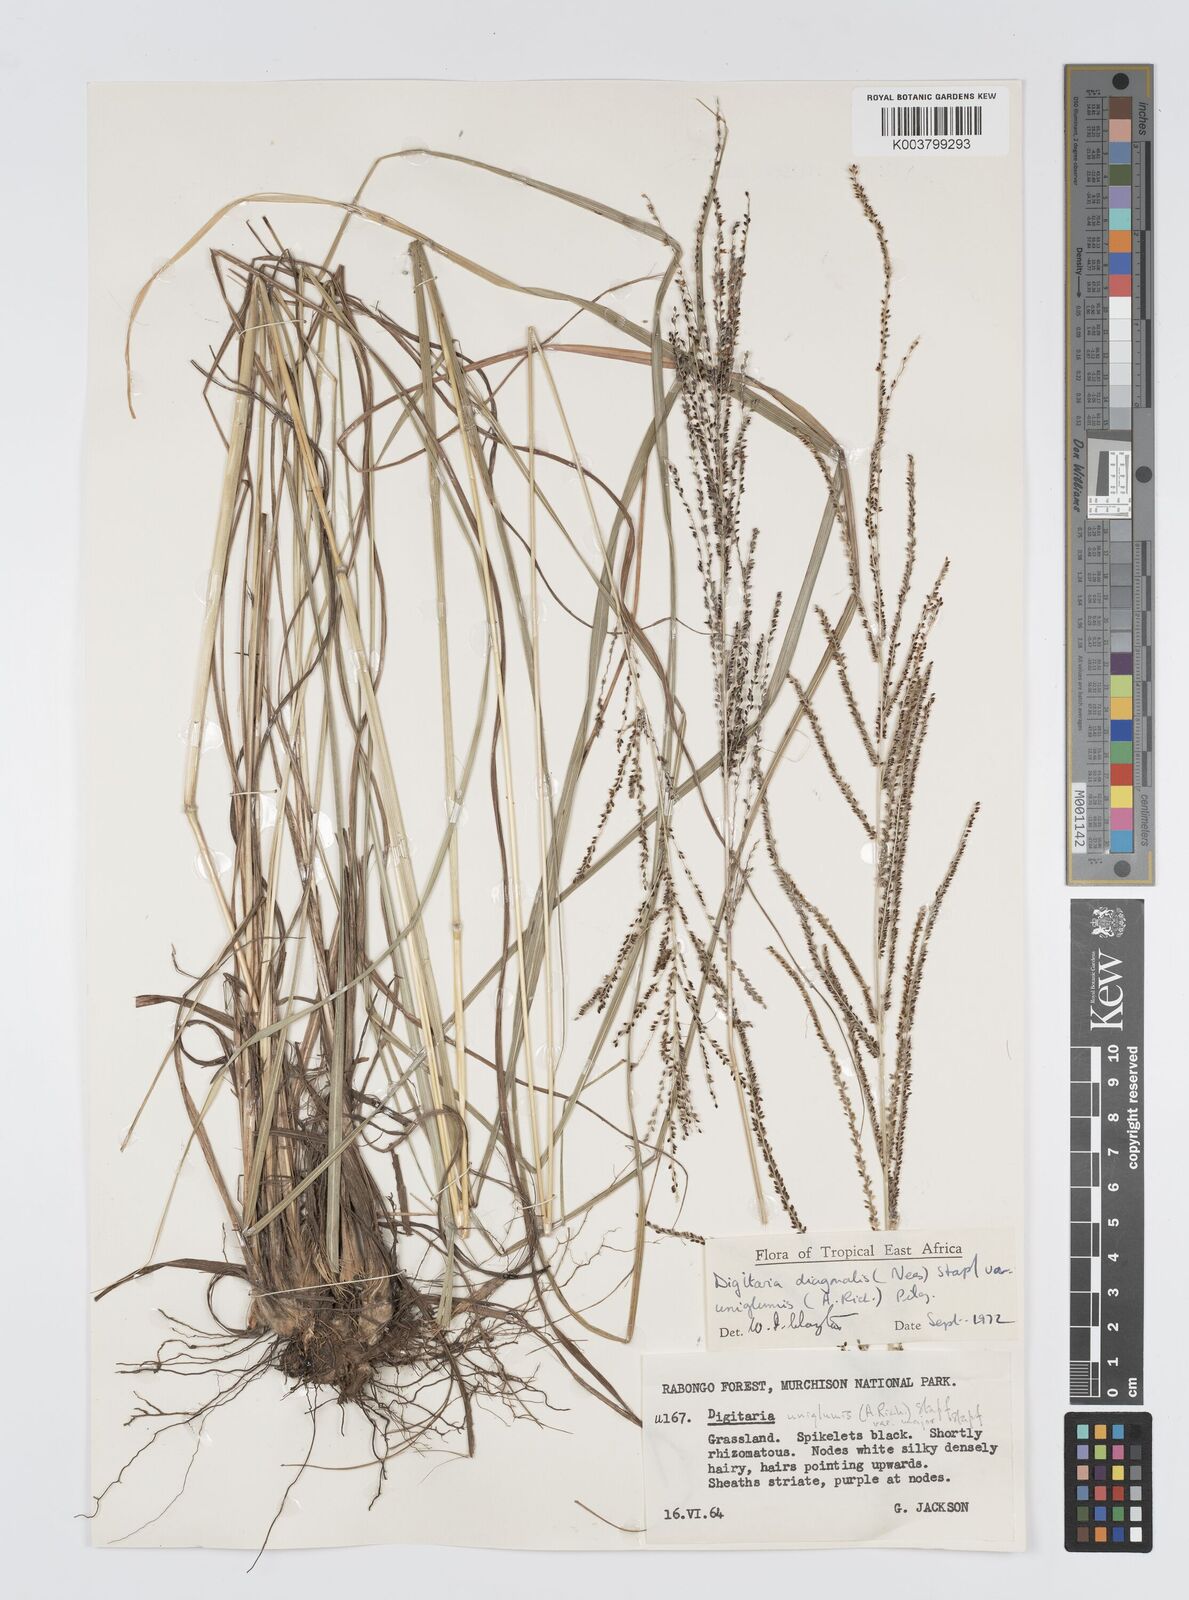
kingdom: Plantae
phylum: Tracheophyta
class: Liliopsida
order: Poales
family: Poaceae
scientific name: Poaceae
